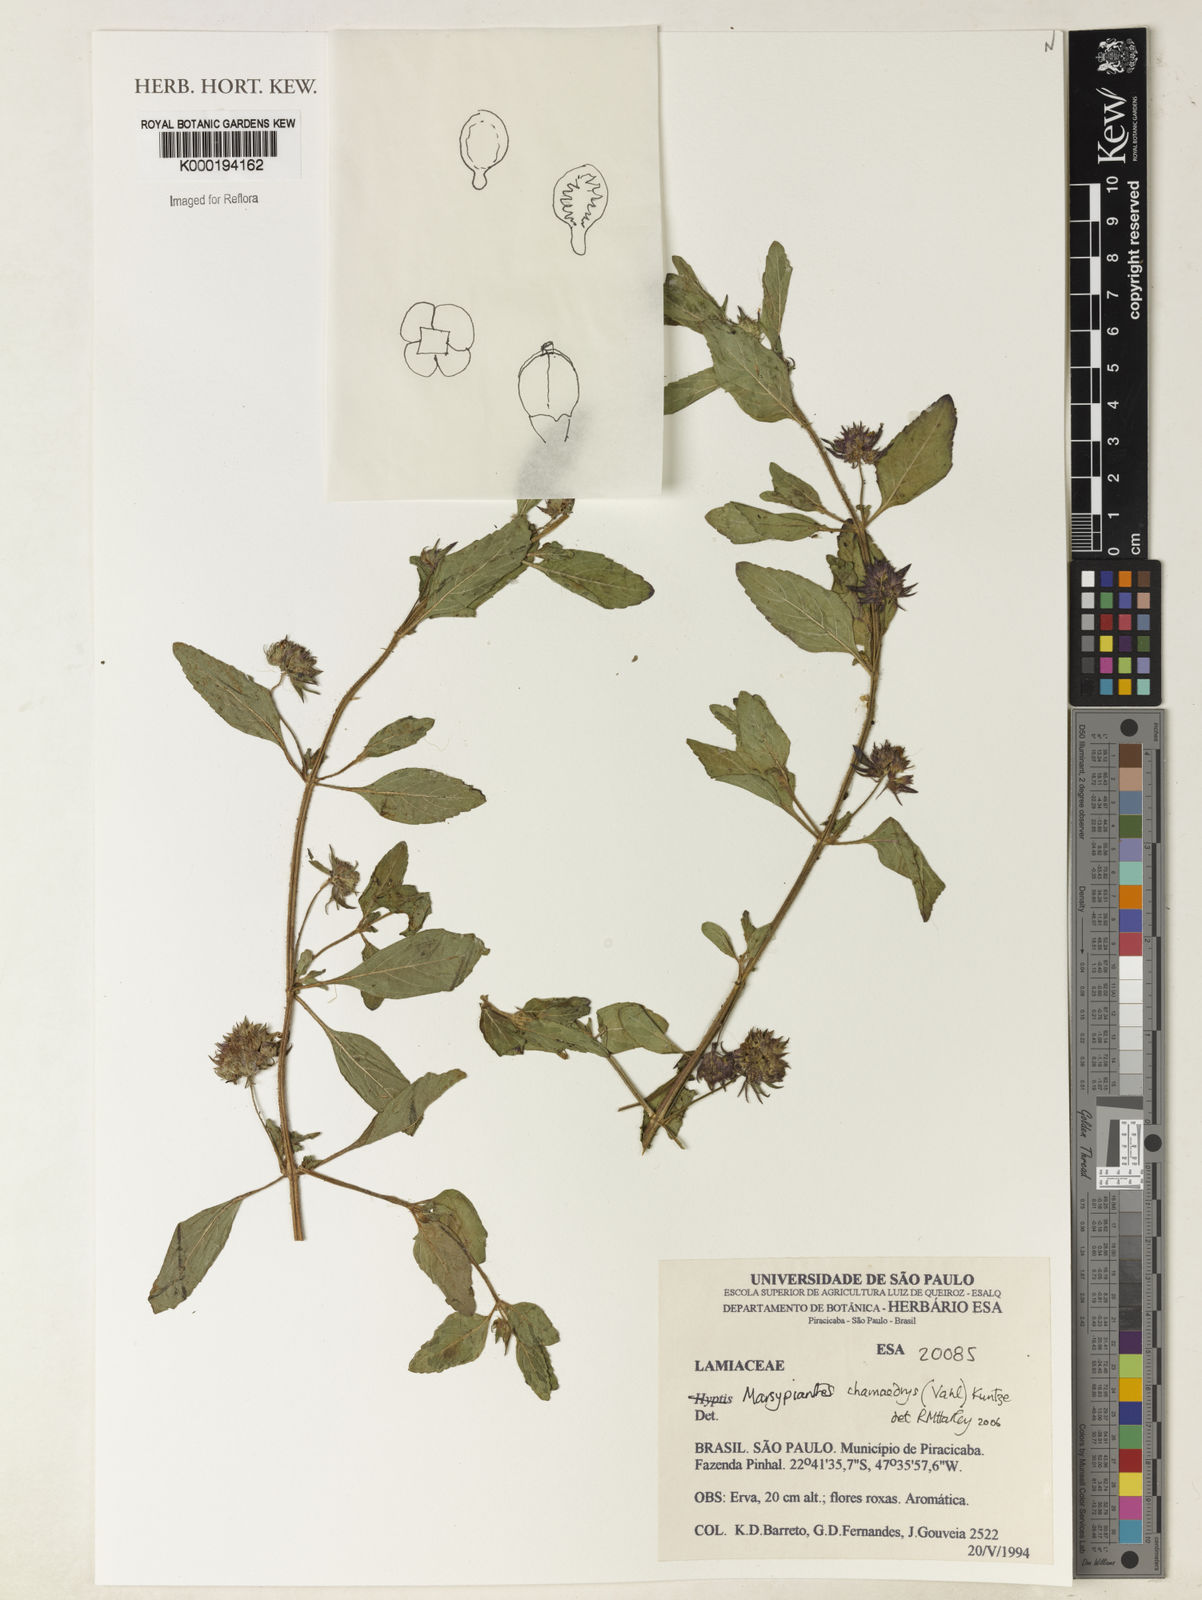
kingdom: Plantae
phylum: Tracheophyta
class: Magnoliopsida
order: Lamiales
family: Lamiaceae
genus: Marsypianthes
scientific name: Marsypianthes chamaedrys
